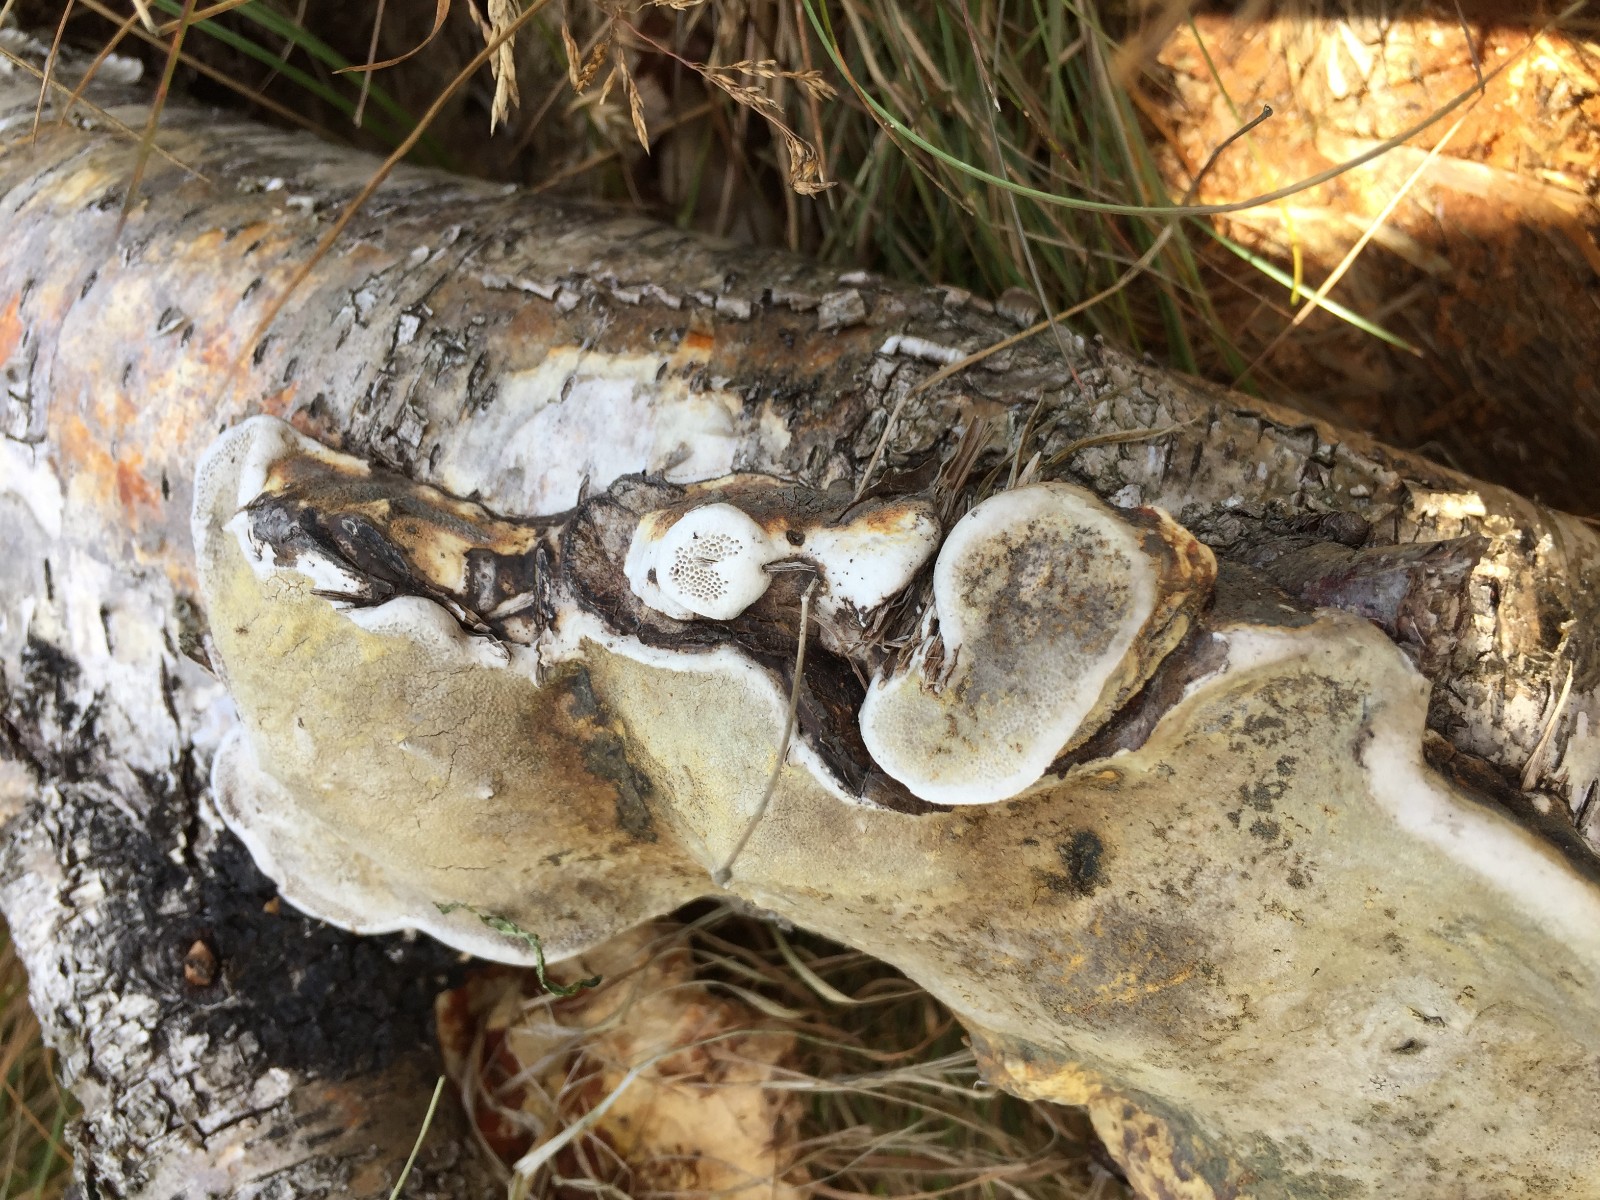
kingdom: Fungi
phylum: Basidiomycota
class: Agaricomycetes
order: Polyporales
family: Fomitopsidaceae
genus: Fomitopsis
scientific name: Fomitopsis pinicola
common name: randbæltet hovporesvamp
